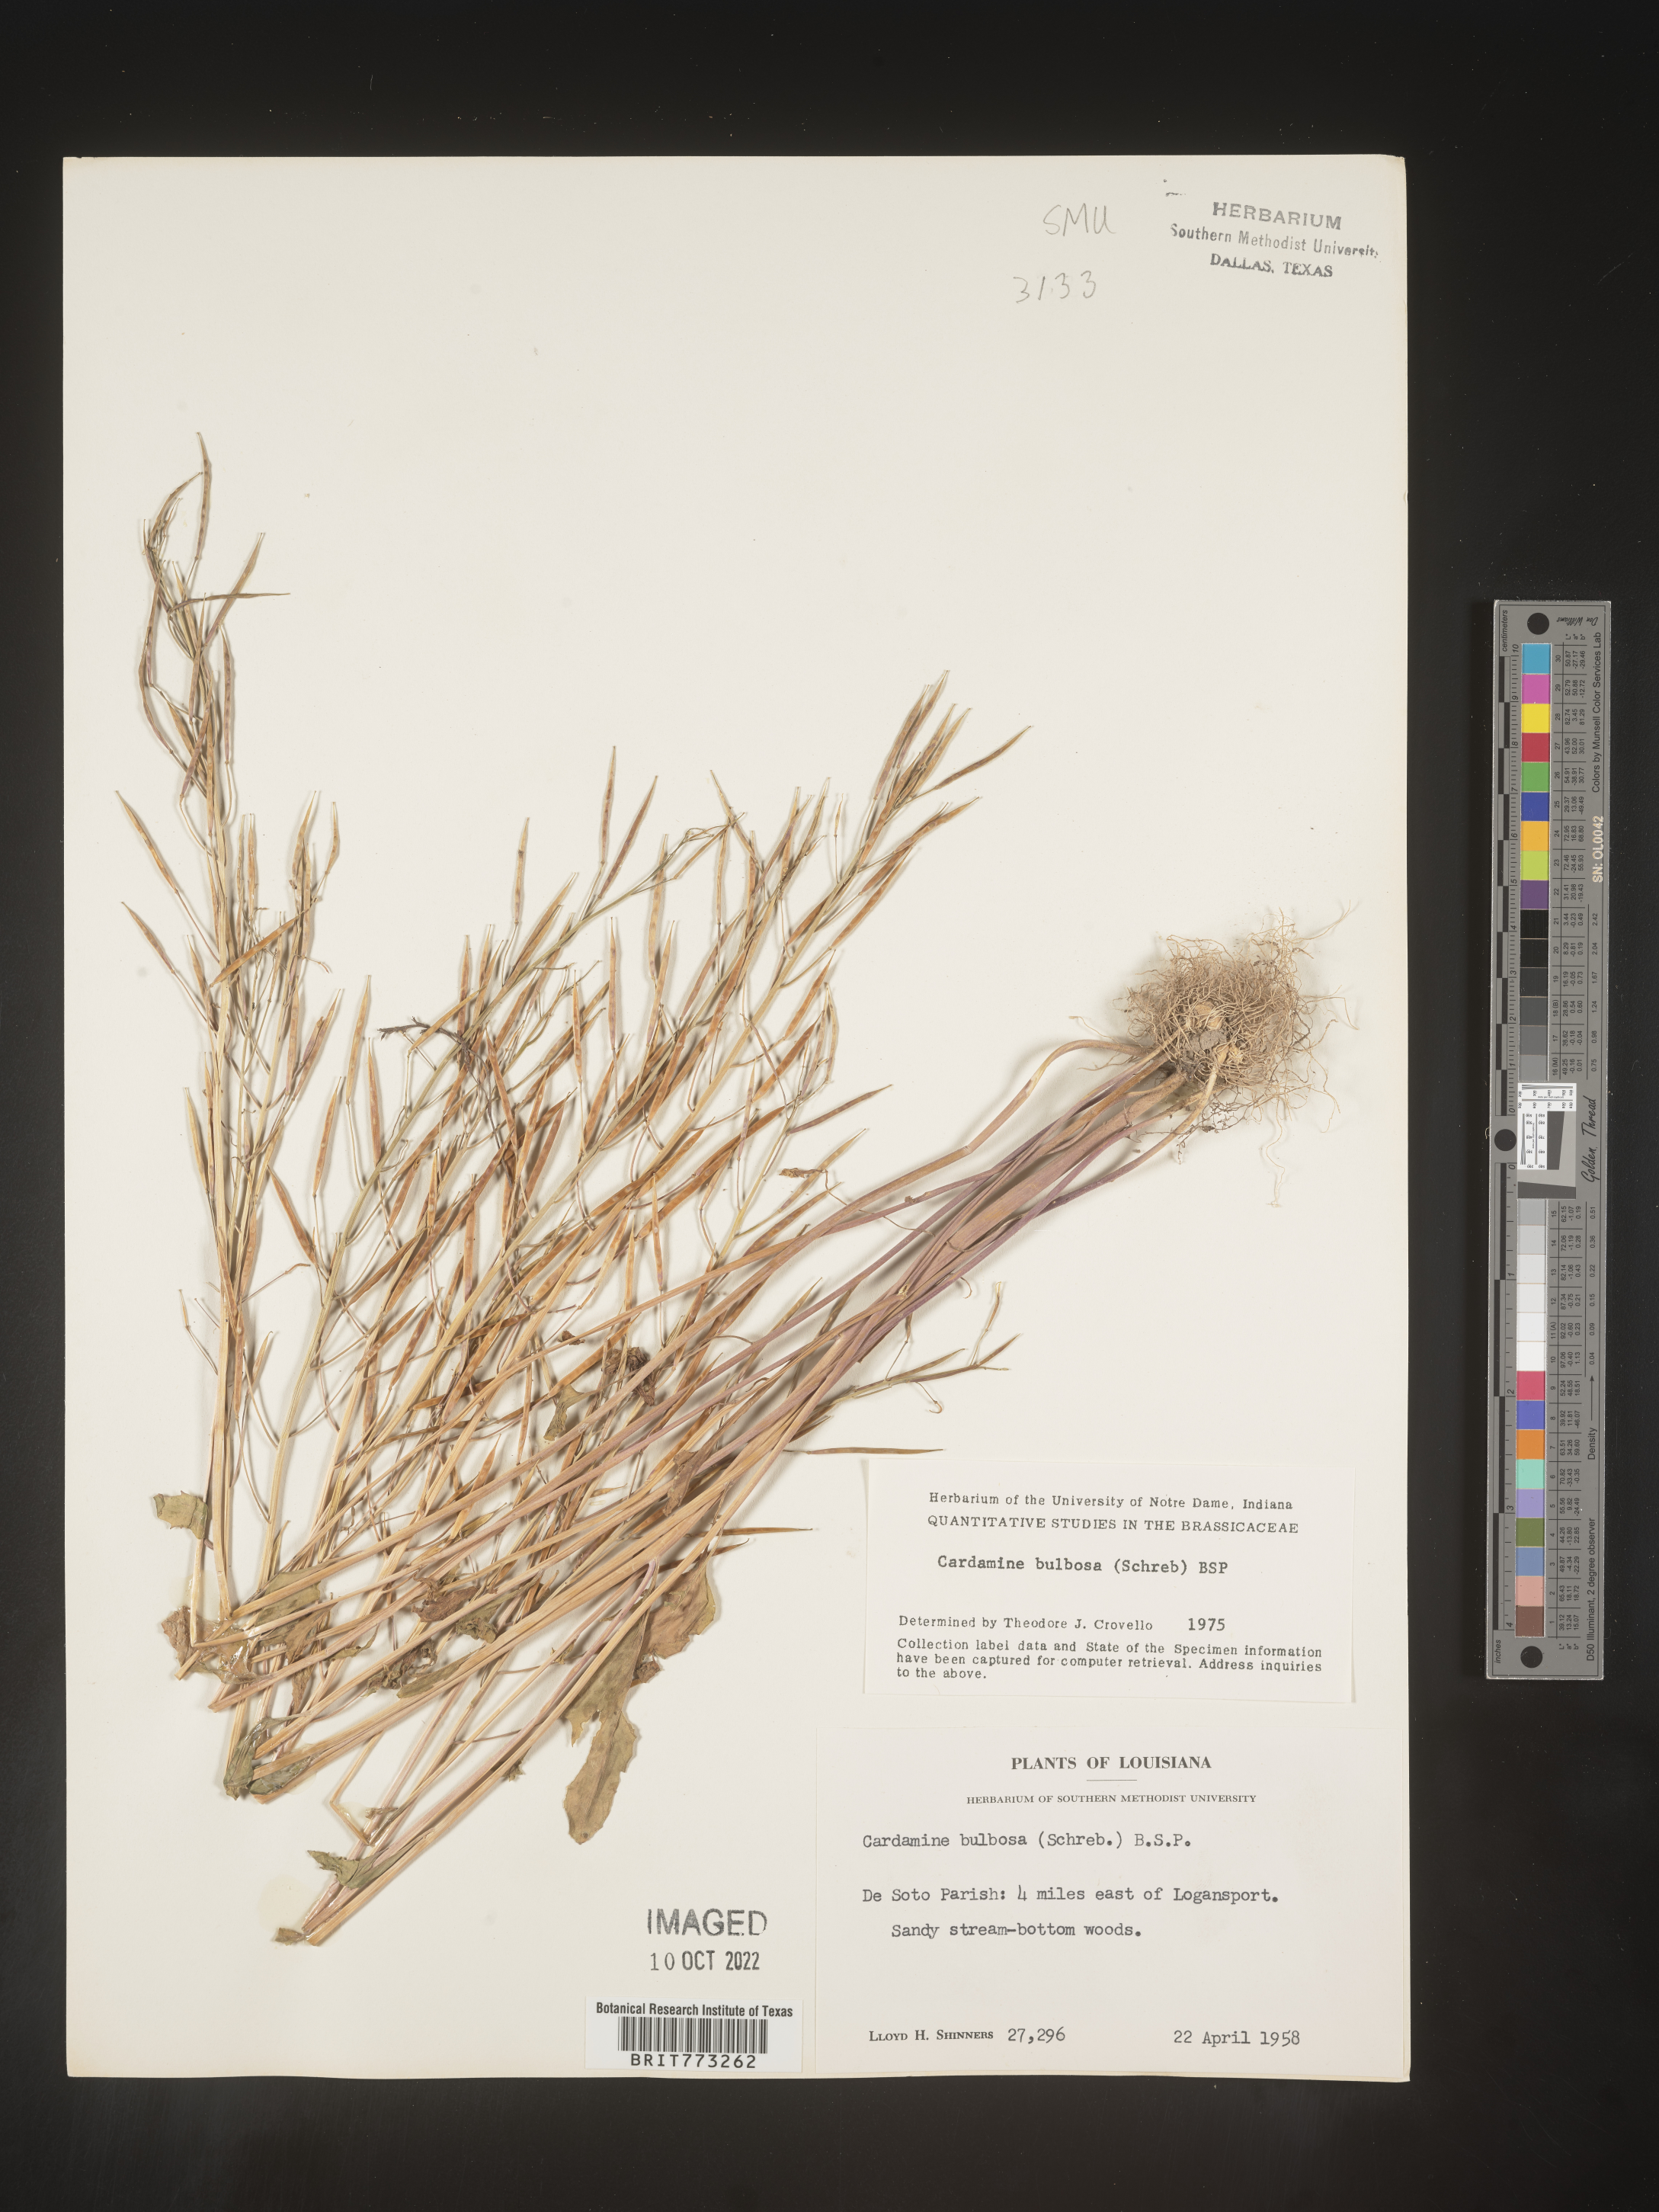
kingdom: Plantae
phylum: Tracheophyta
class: Magnoliopsida
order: Brassicales
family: Brassicaceae
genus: Cardamine
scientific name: Cardamine bulbosa
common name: Spring cress
